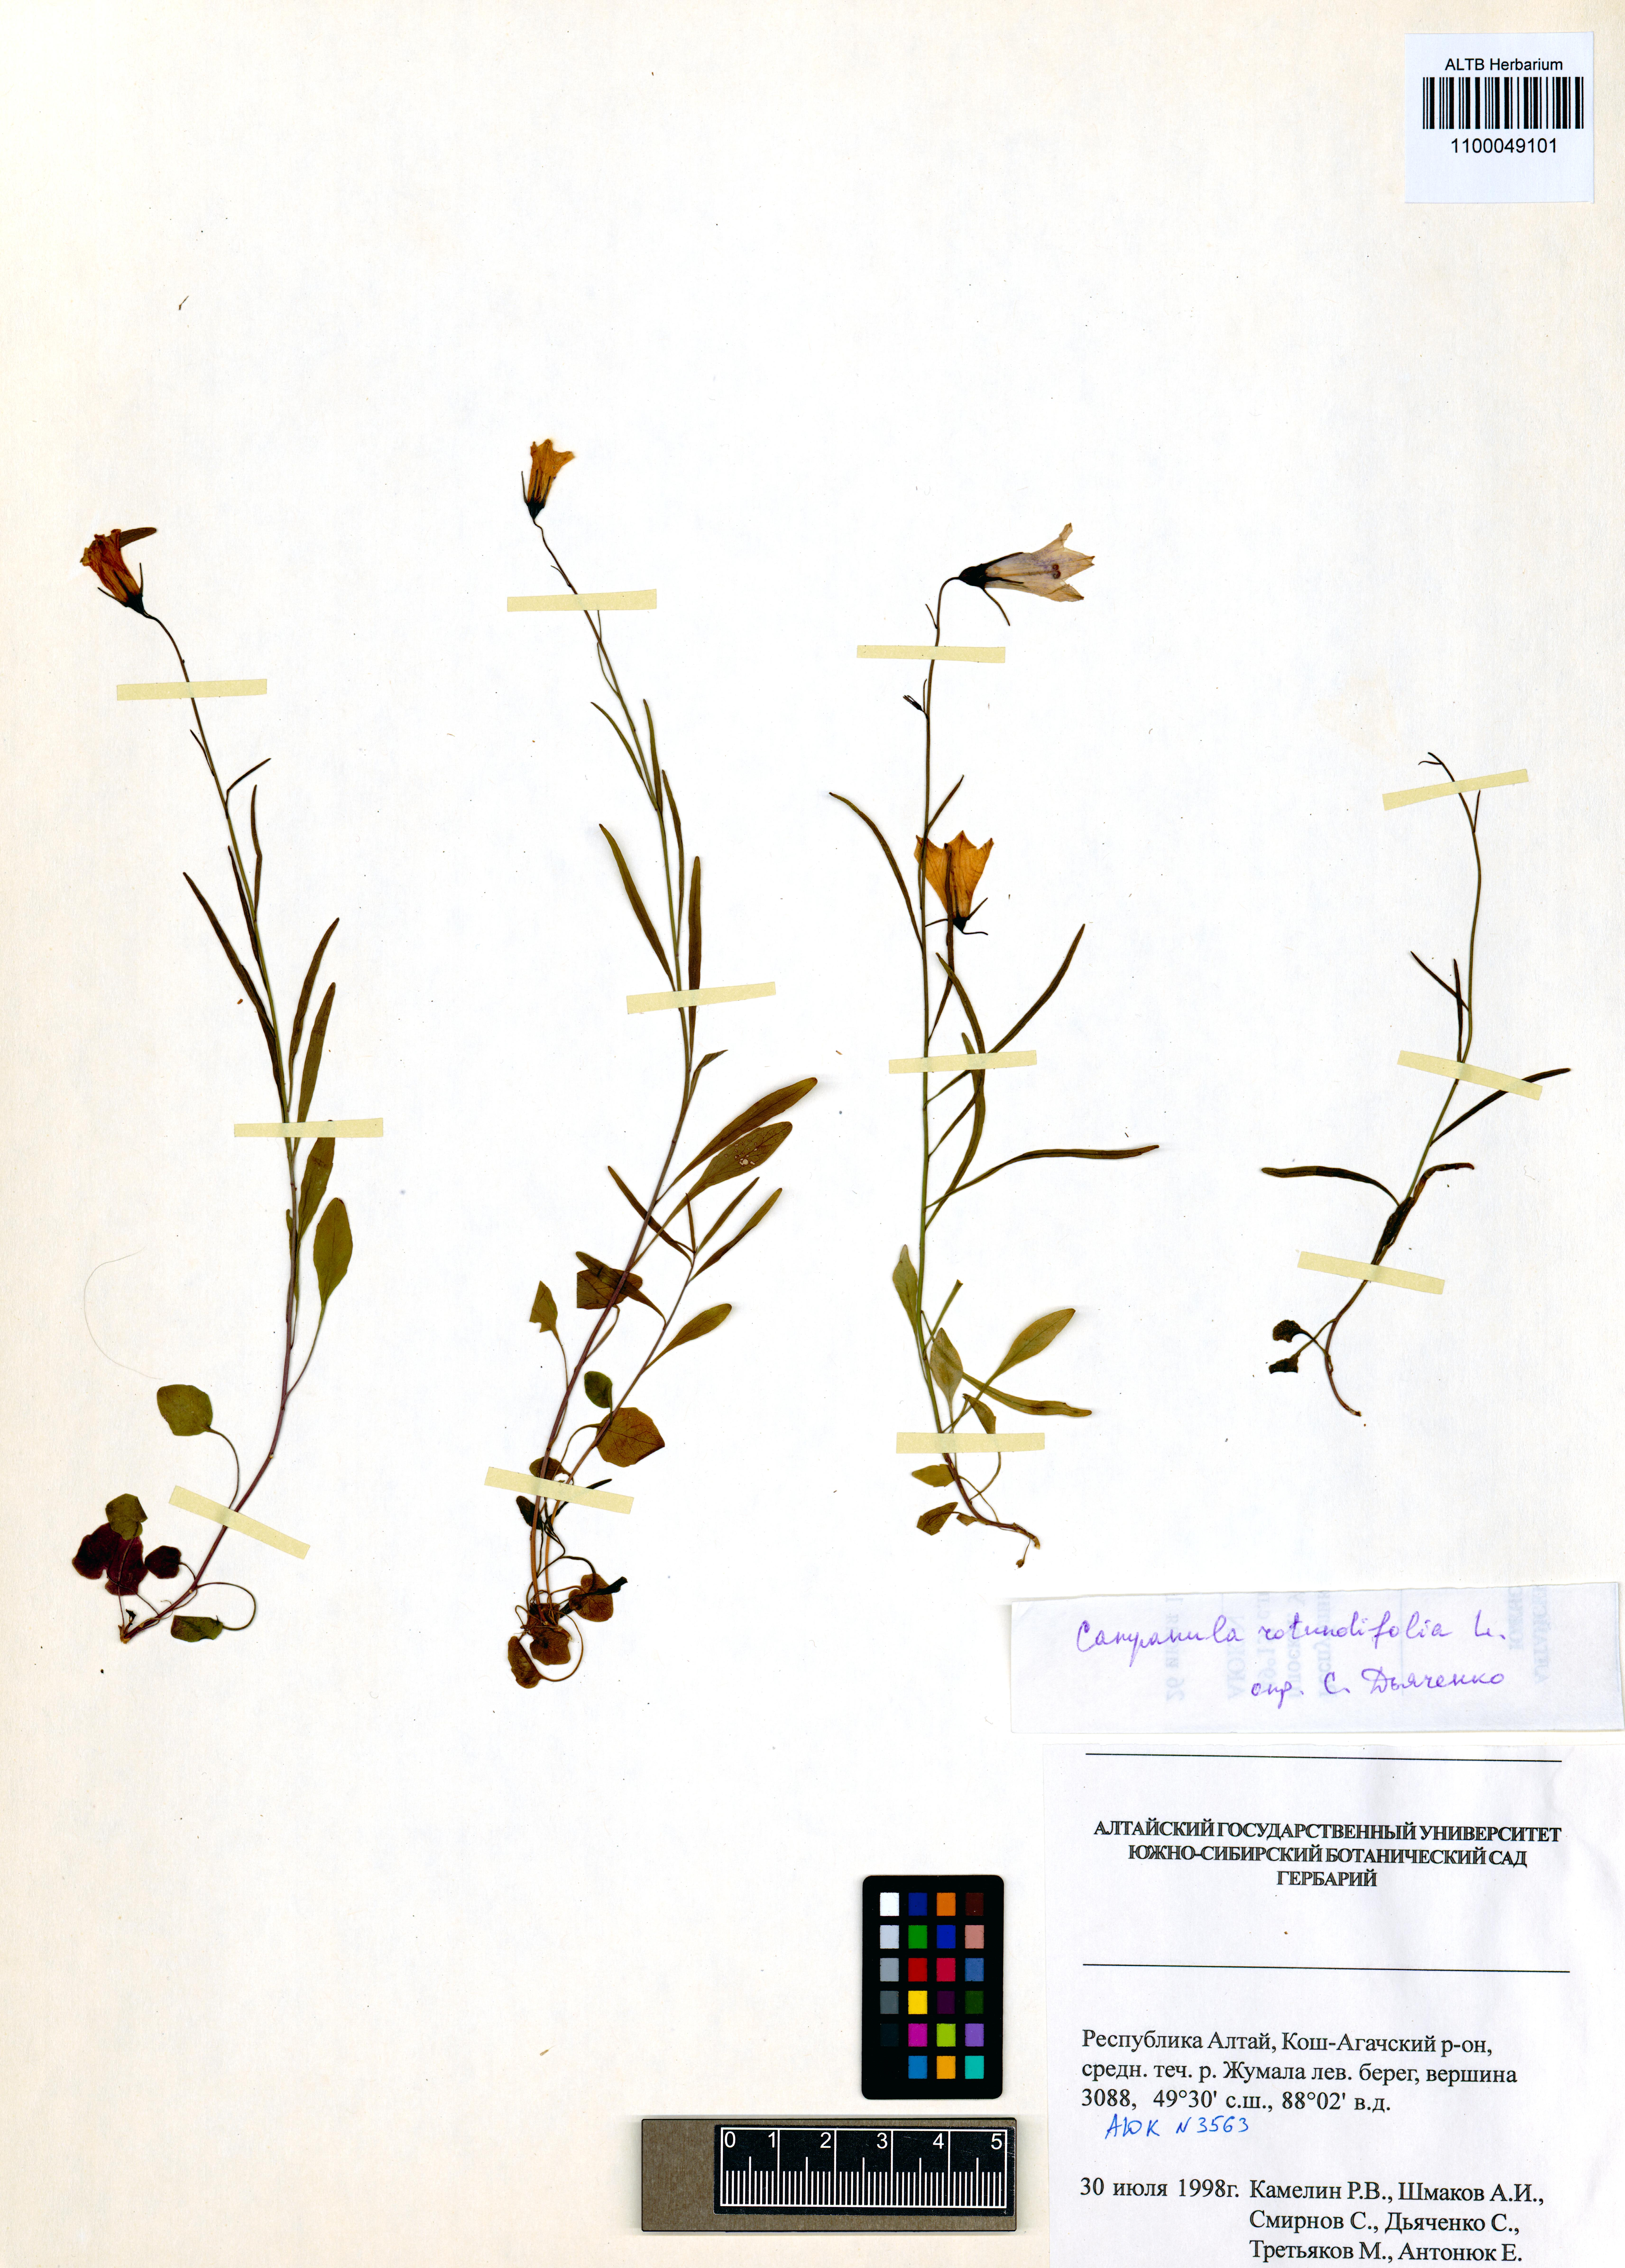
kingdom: Plantae
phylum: Tracheophyta
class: Magnoliopsida
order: Asterales
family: Campanulaceae
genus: Campanula
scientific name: Campanula rotundifolia
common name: Harebell
